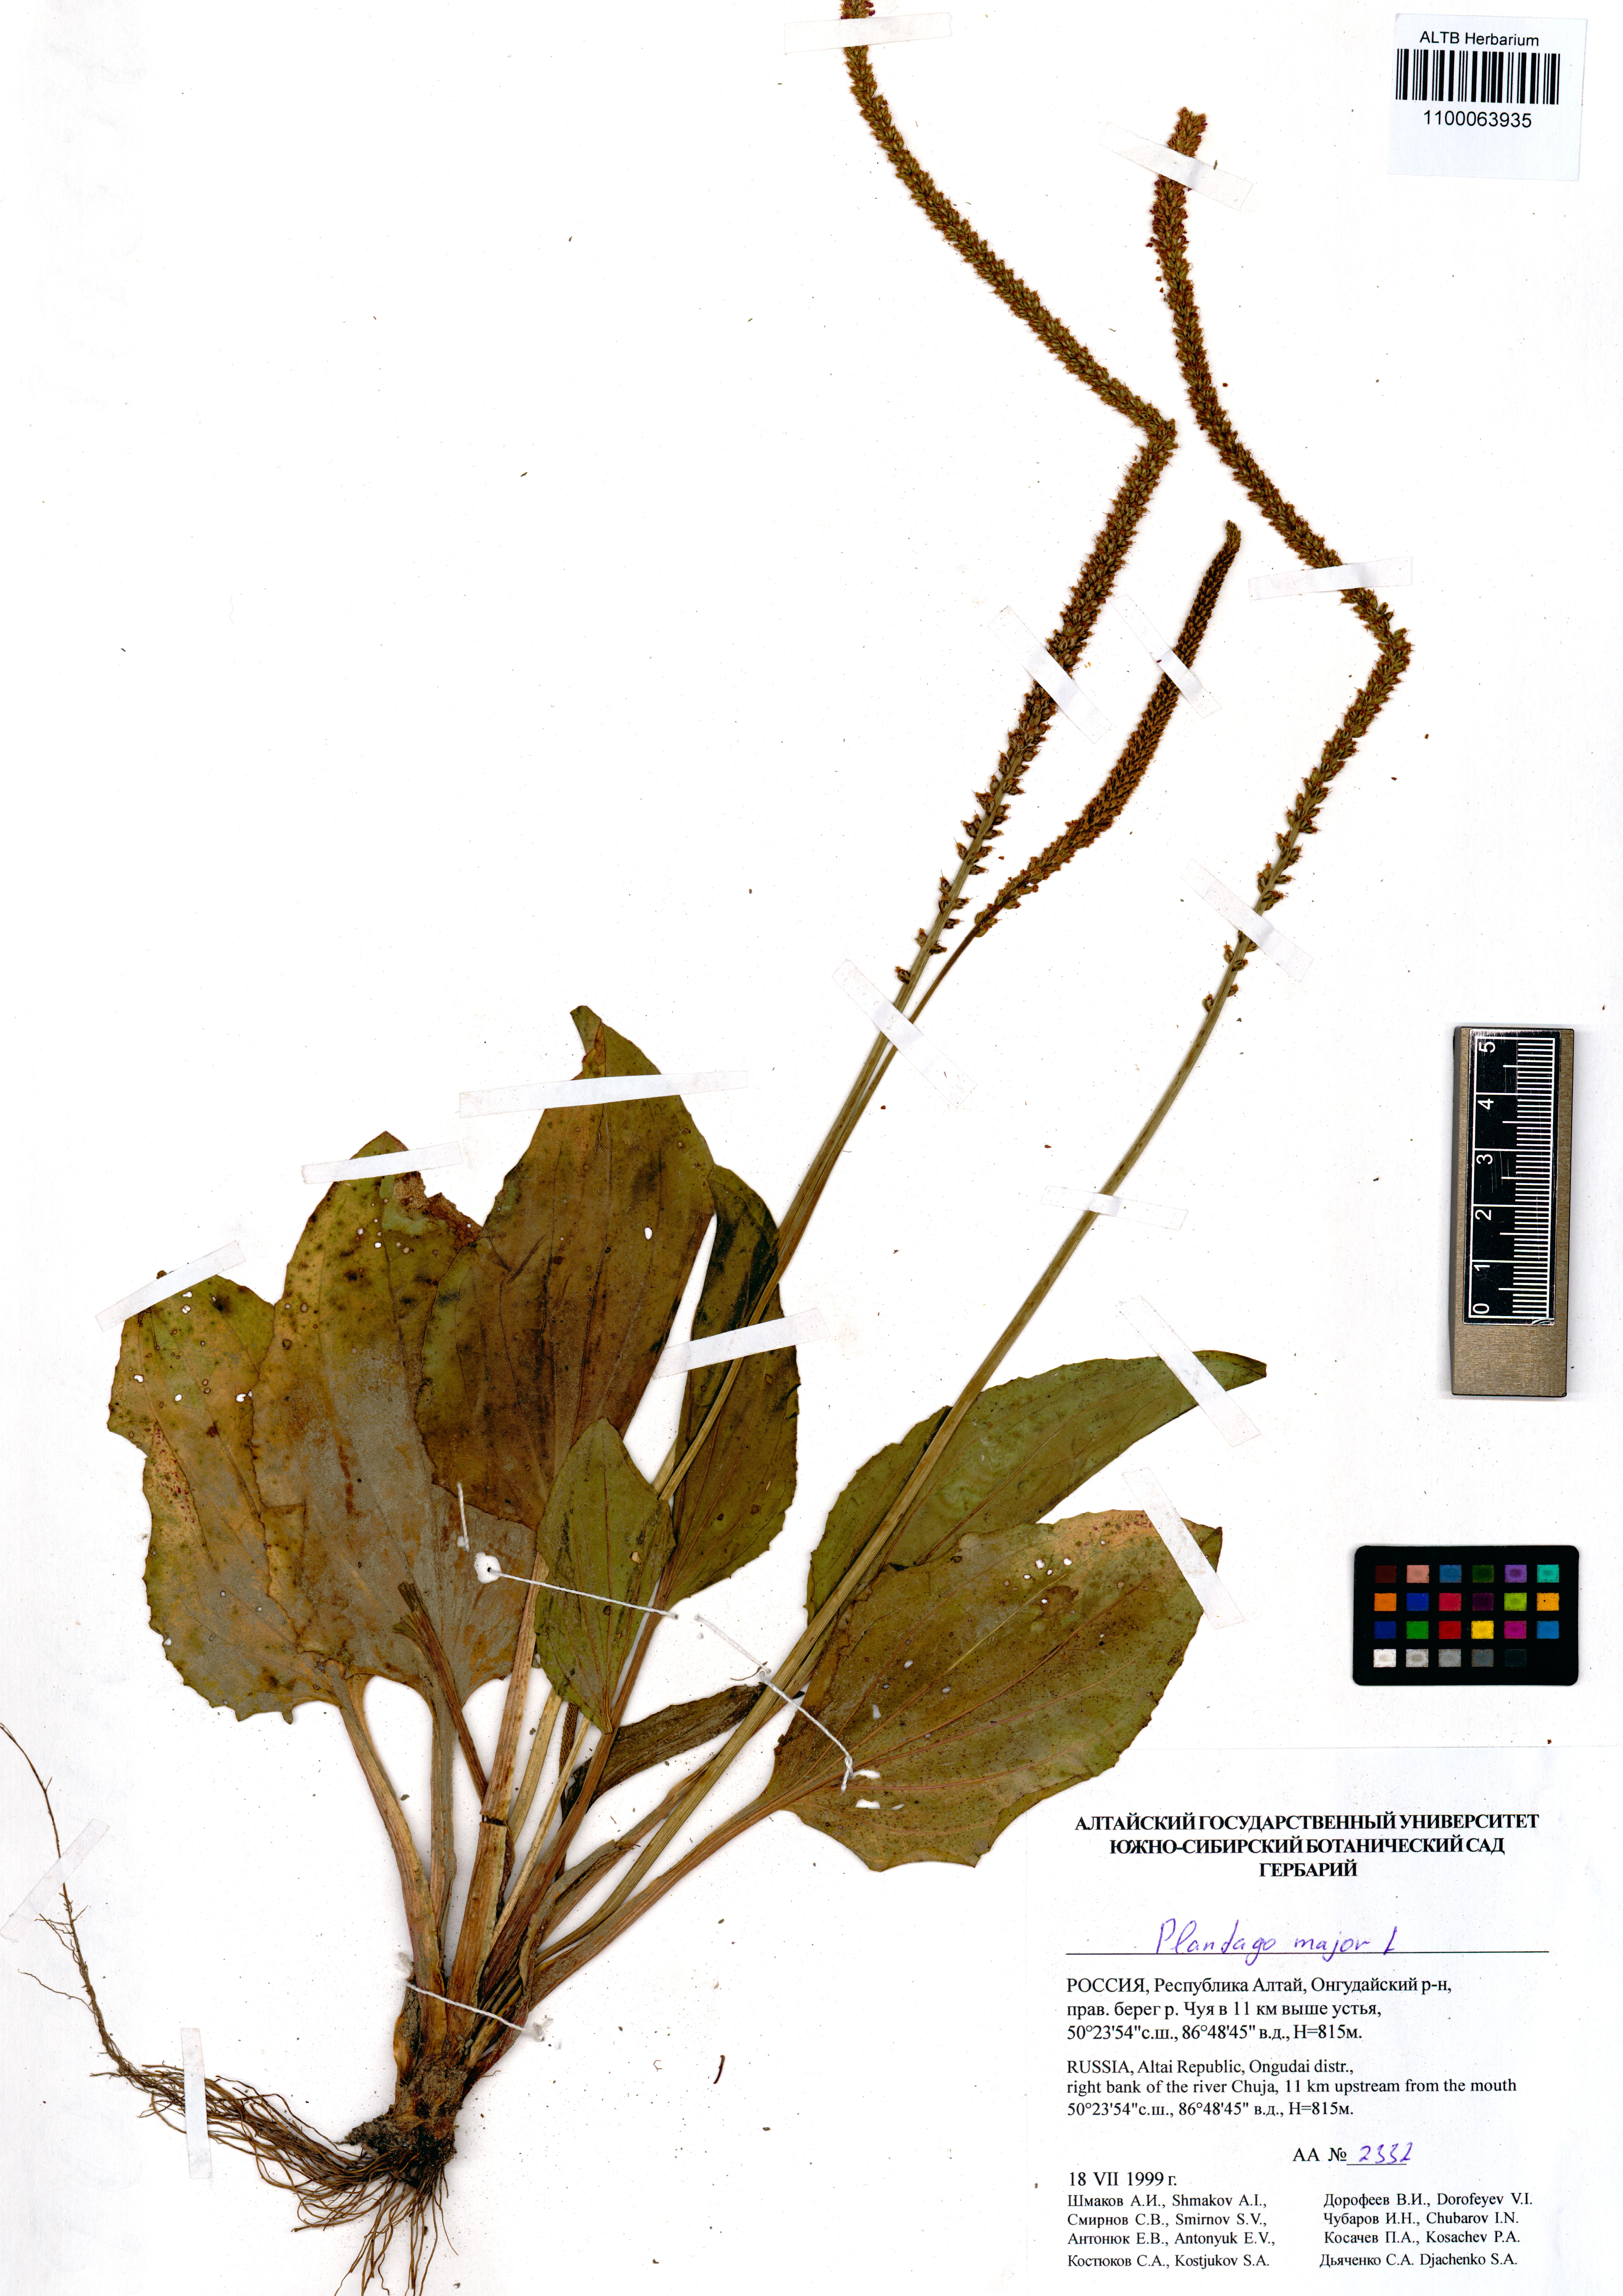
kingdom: Plantae
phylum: Tracheophyta
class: Magnoliopsida
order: Lamiales
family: Plantaginaceae
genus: Plantago
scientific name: Plantago major
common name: Common plantain
